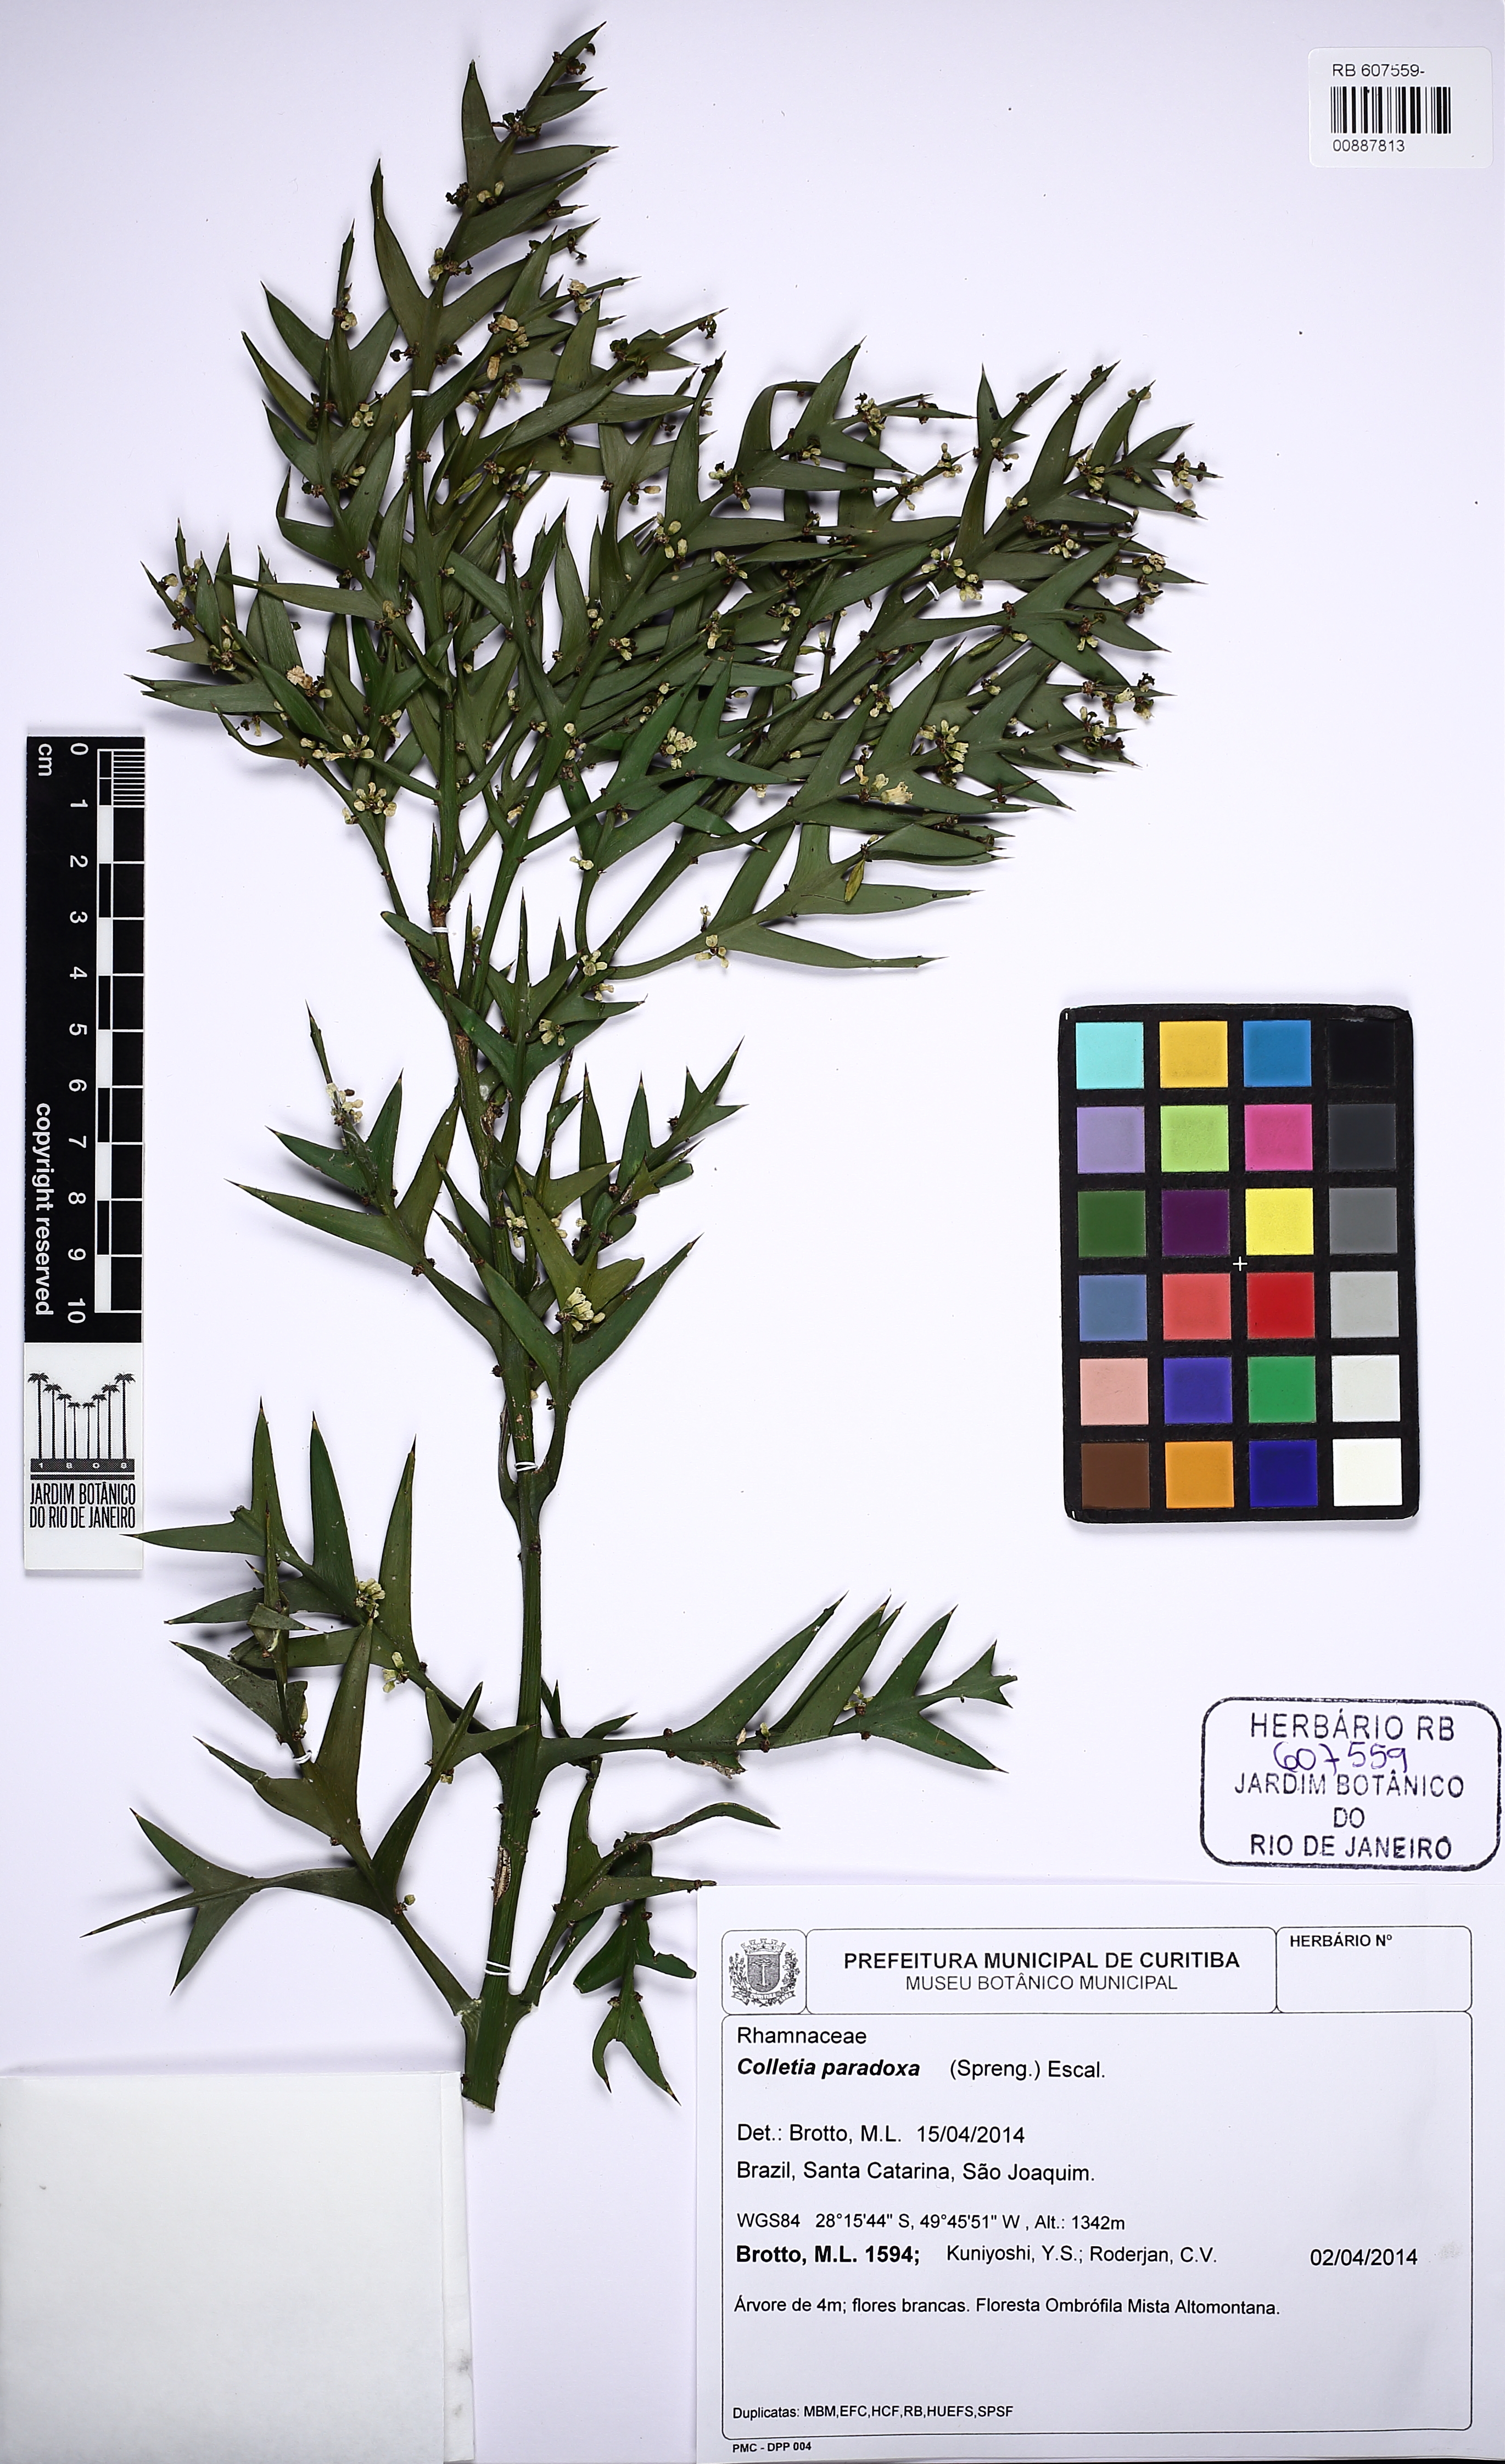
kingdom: Plantae
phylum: Tracheophyta
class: Magnoliopsida
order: Rosales
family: Rhamnaceae
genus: Colletia
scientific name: Colletia paradoxa
